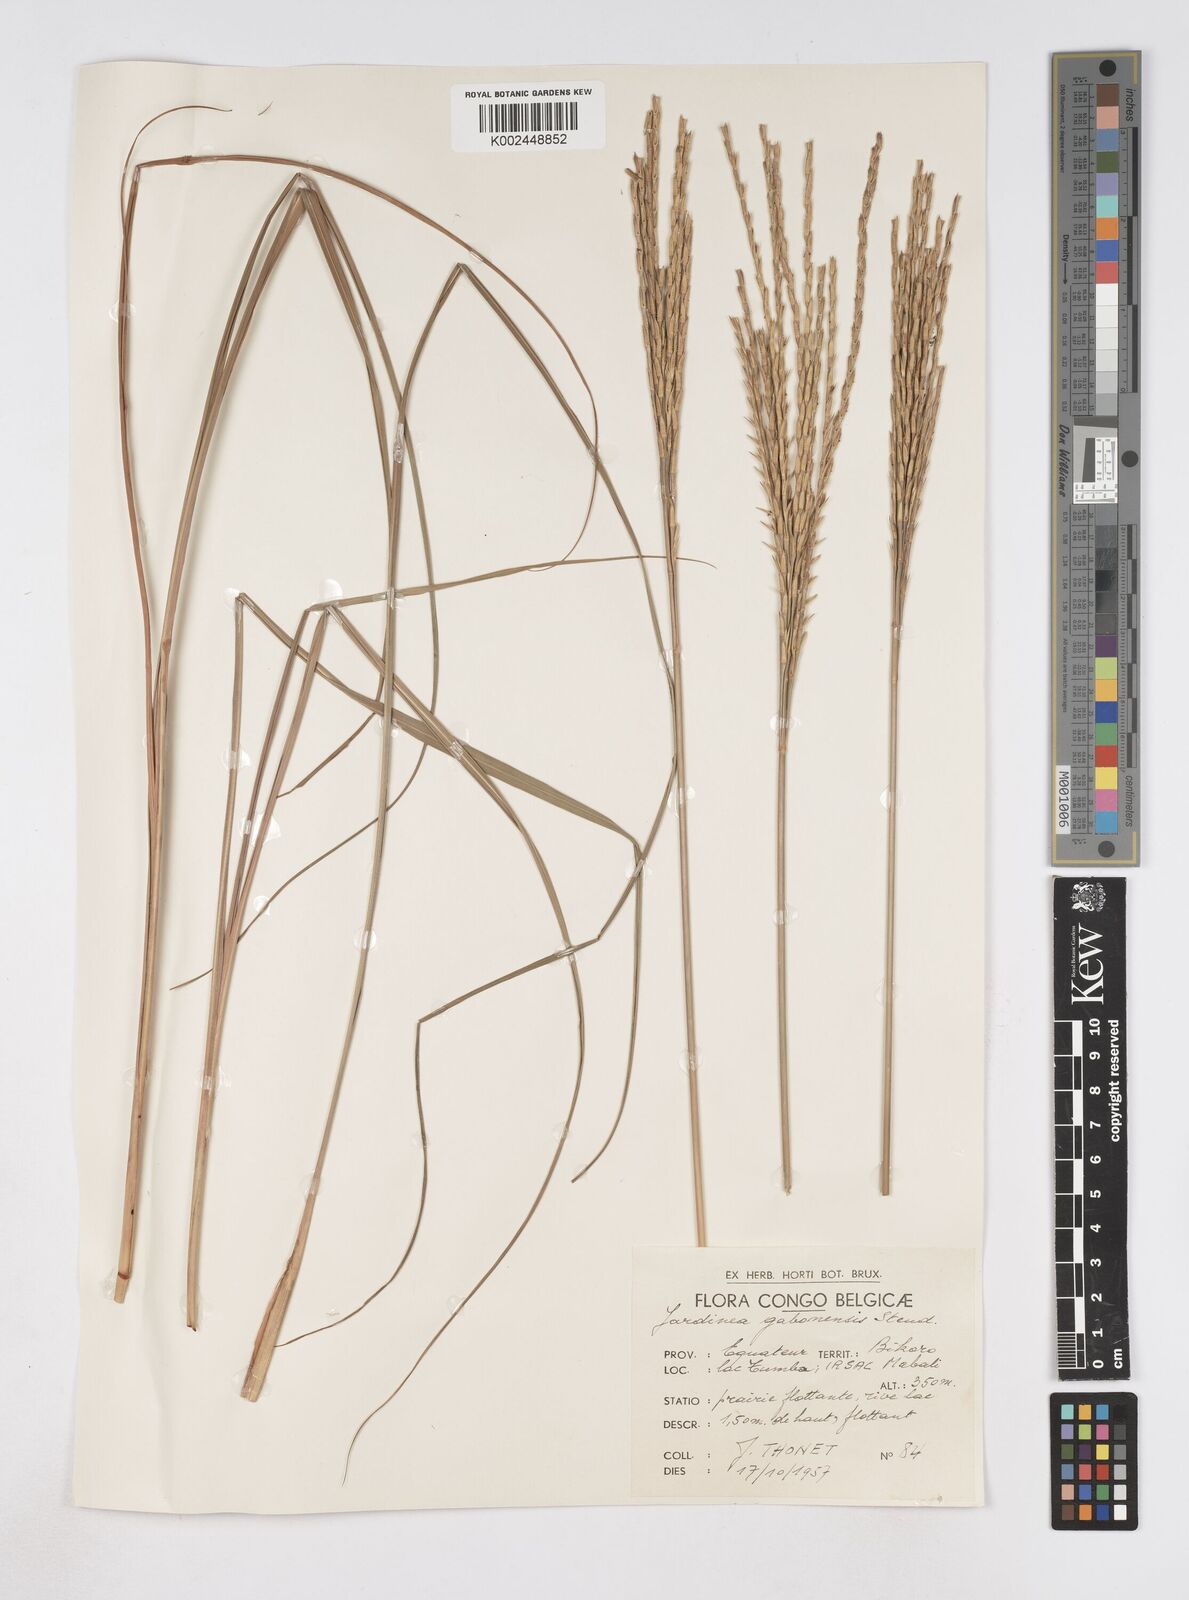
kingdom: Plantae
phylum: Tracheophyta
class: Liliopsida
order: Poales
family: Poaceae
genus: Phacelurus
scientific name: Phacelurus gabonensis
